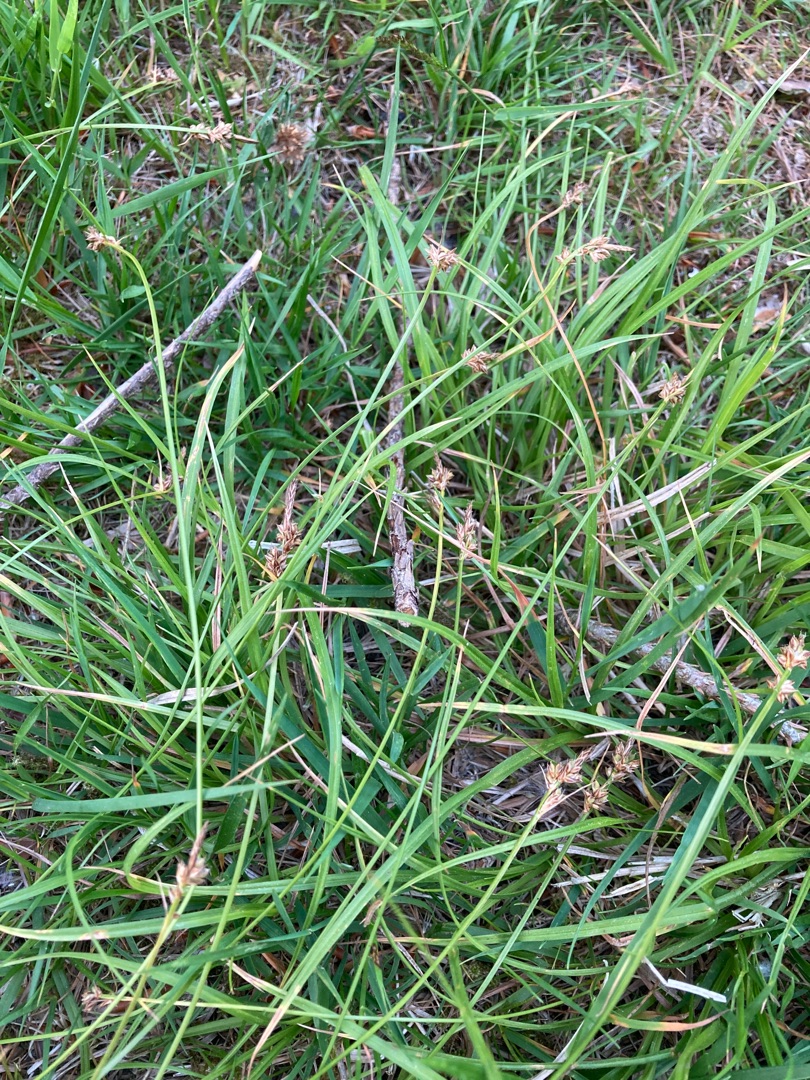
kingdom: Plantae
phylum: Tracheophyta
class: Liliopsida
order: Poales
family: Cyperaceae
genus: Carex
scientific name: Carex pilulifera
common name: Pille-star
